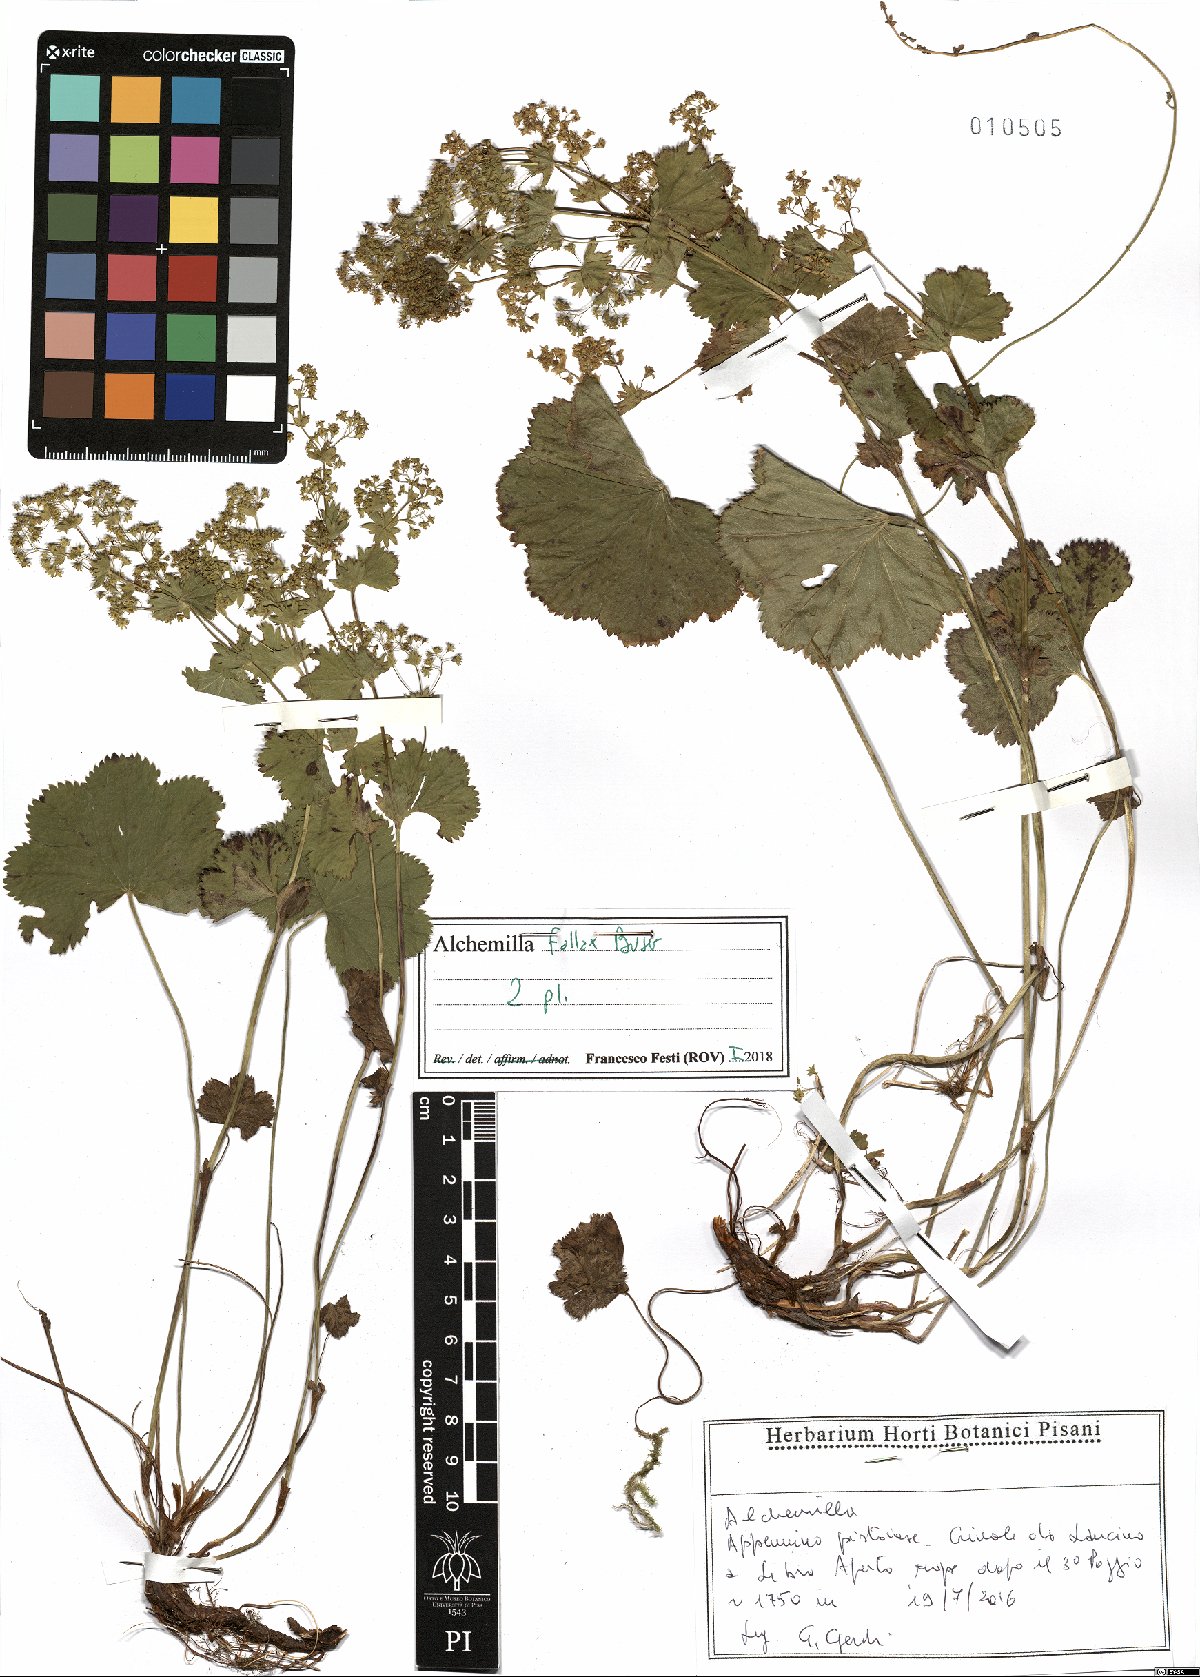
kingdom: Plantae
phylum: Tracheophyta
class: Magnoliopsida
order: Rosales
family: Rosaceae
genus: Alchemilla
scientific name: Alchemilla fallax
